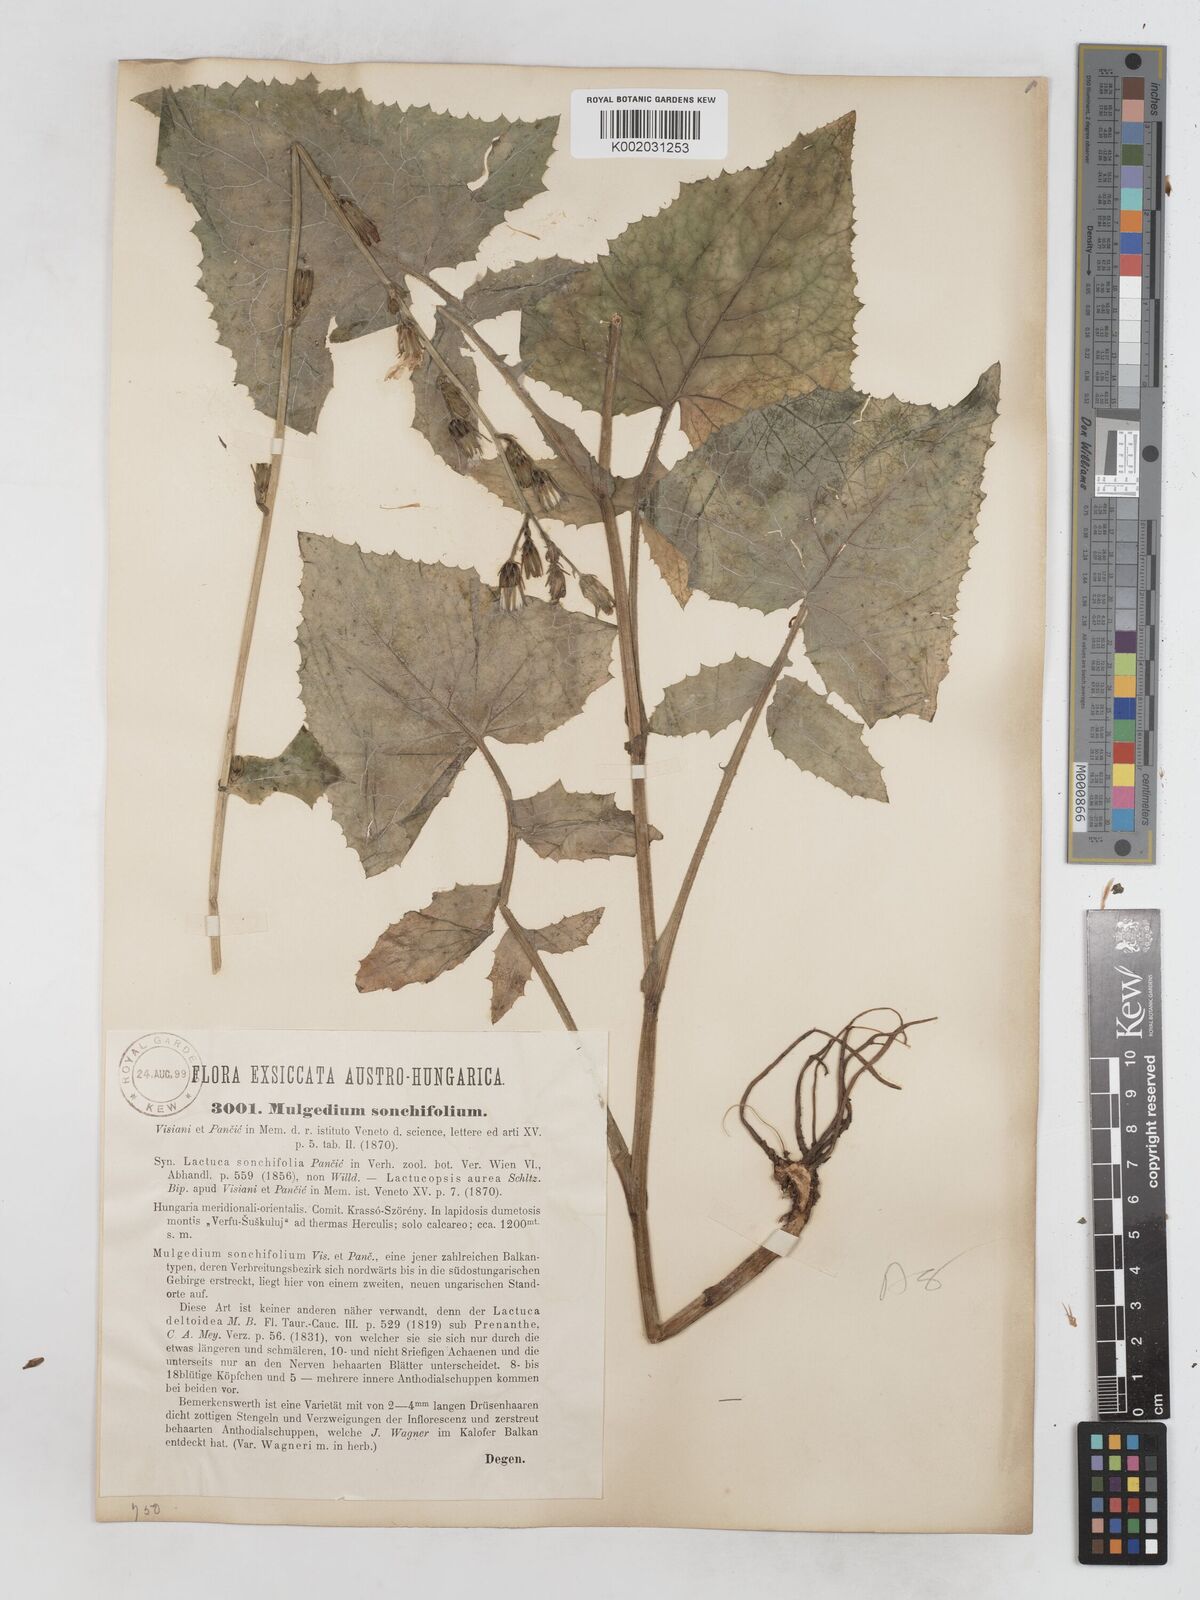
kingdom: Plantae
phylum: Tracheophyta
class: Magnoliopsida
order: Asterales
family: Asteraceae
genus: Lactuca
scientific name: Lactuca sonchifolia
